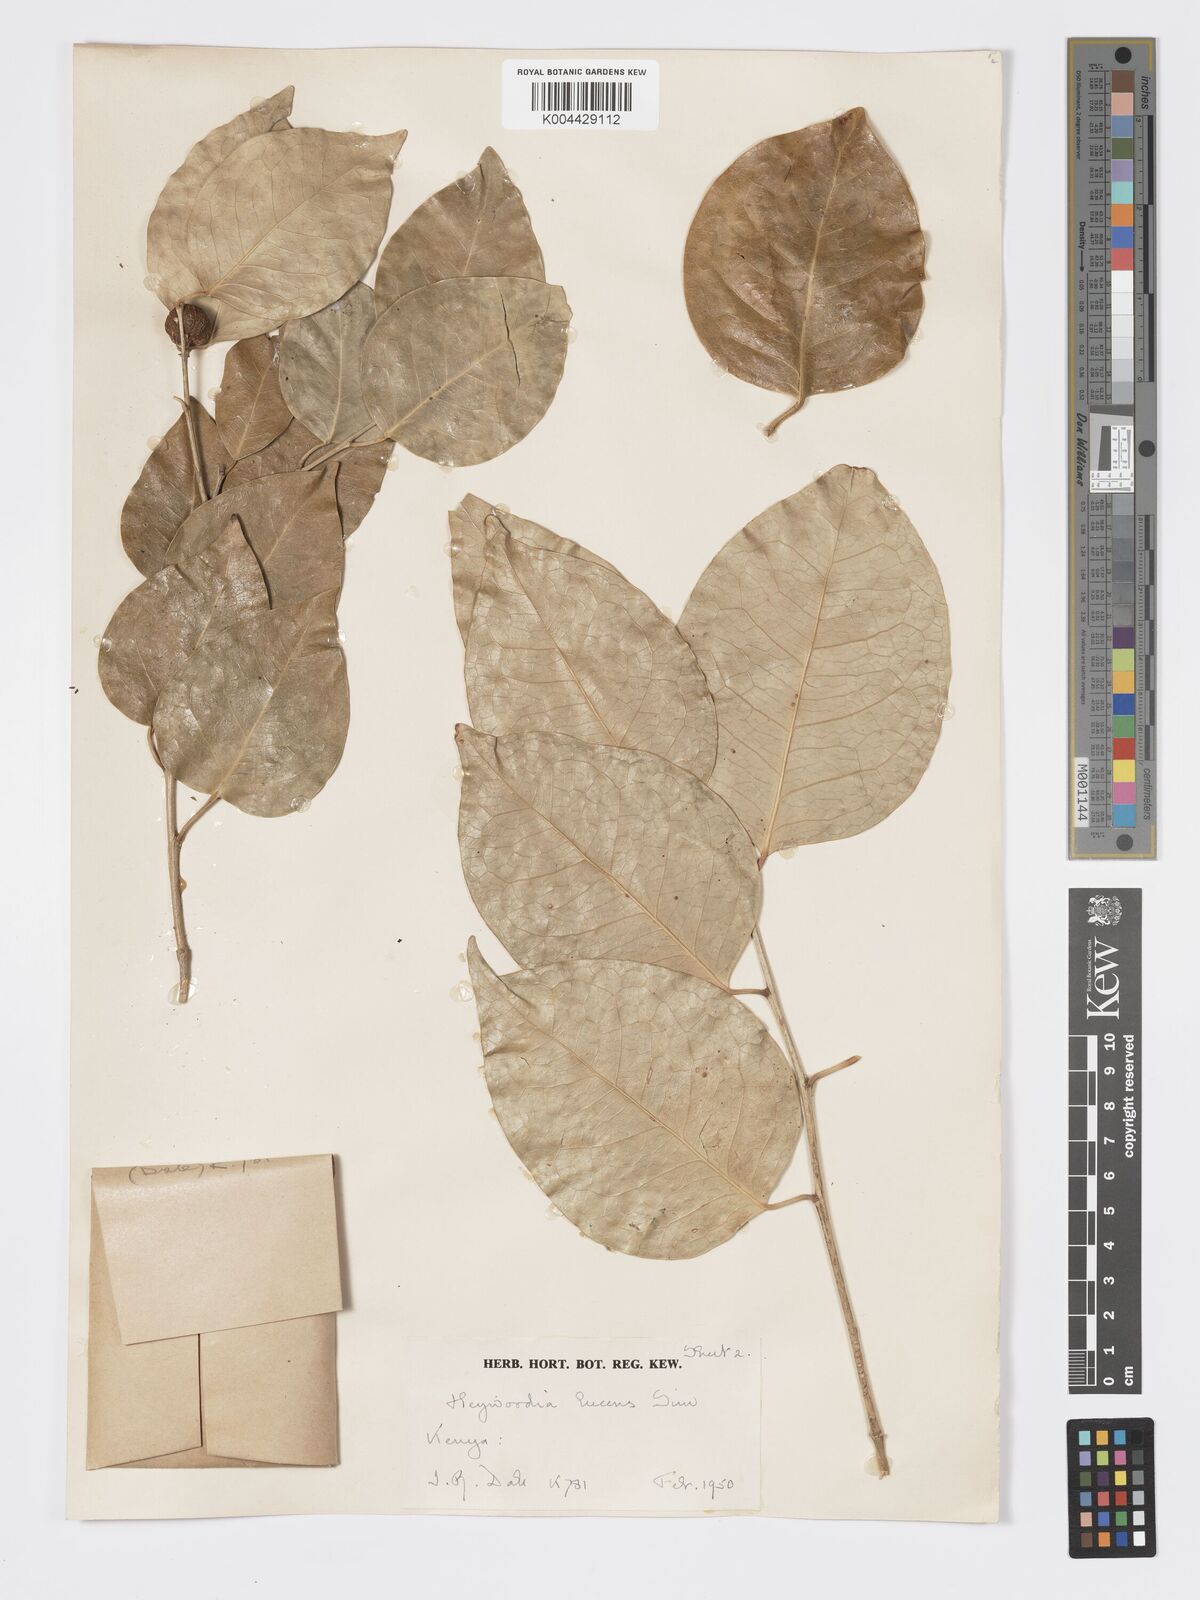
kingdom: Plantae
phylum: Tracheophyta
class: Magnoliopsida
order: Malpighiales
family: Phyllanthaceae
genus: Heywoodia
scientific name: Heywoodia lucens
